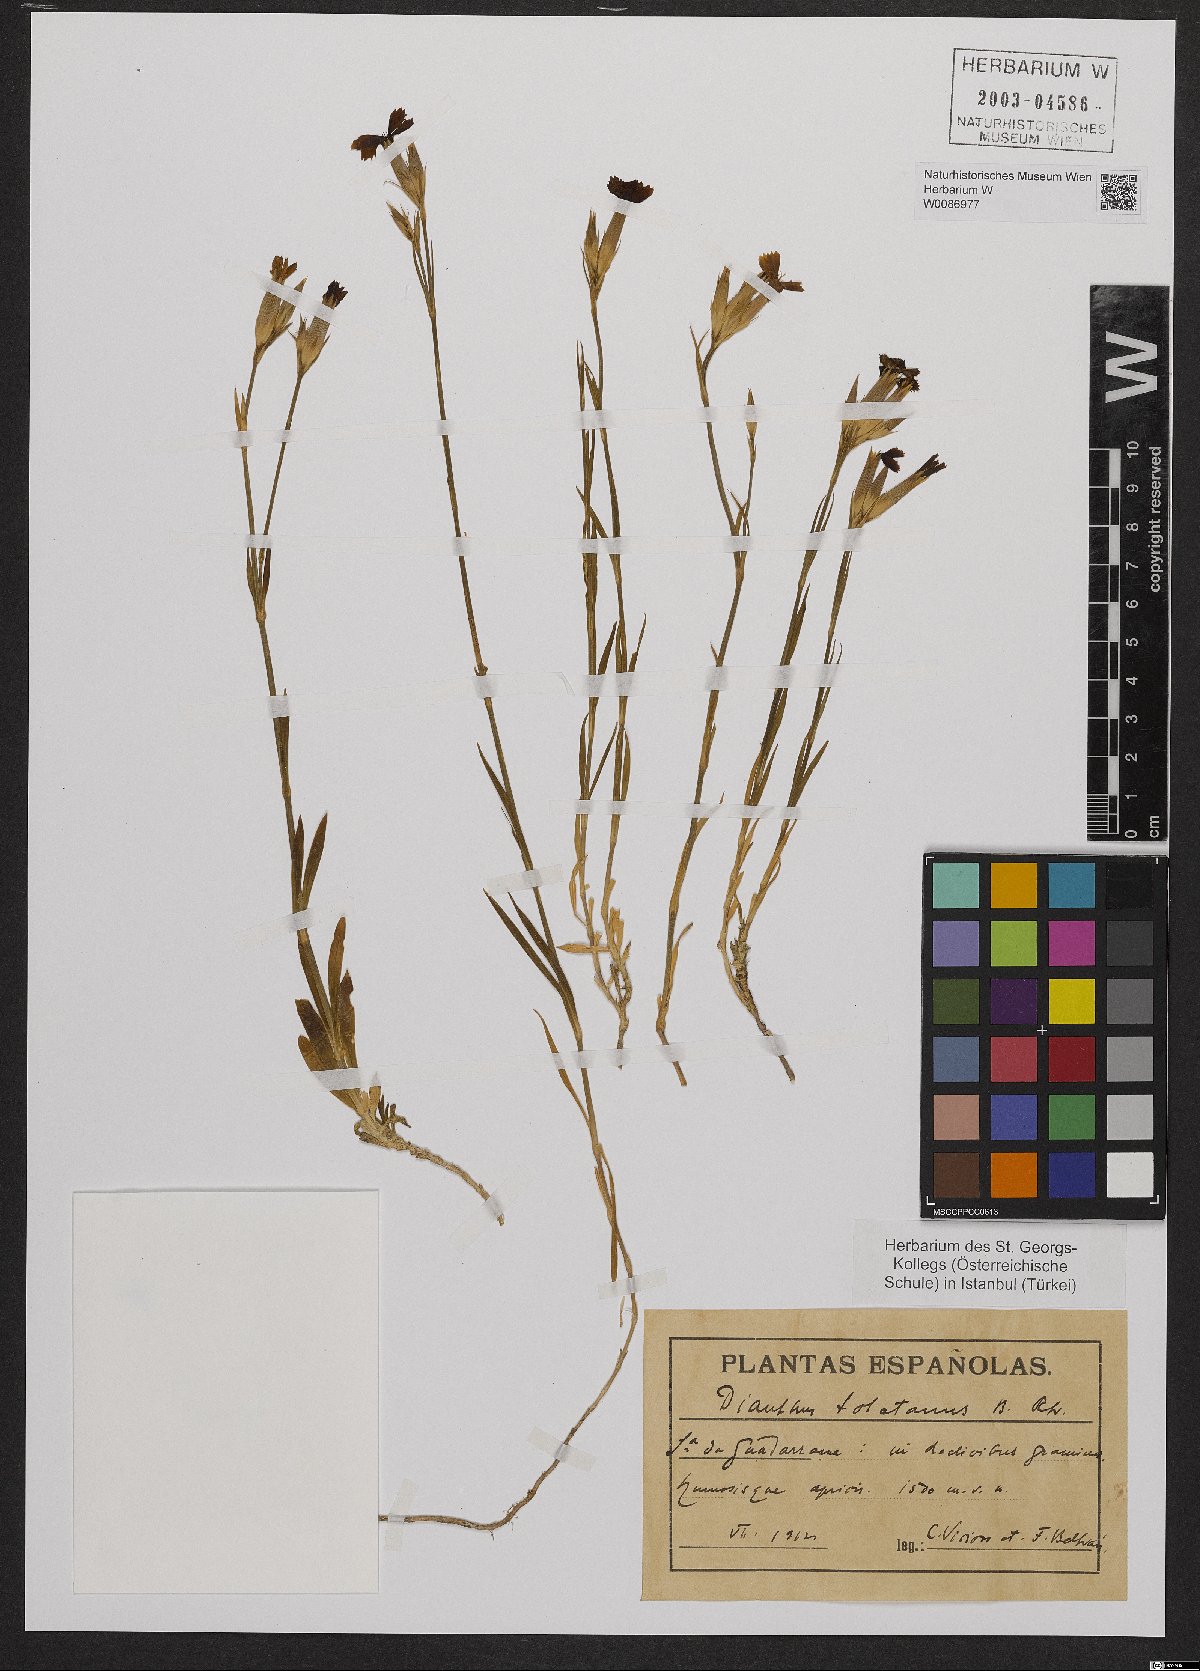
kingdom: Plantae
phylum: Tracheophyta
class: Magnoliopsida
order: Caryophyllales
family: Caryophyllaceae
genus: Dianthus
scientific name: Dianthus toletanus
